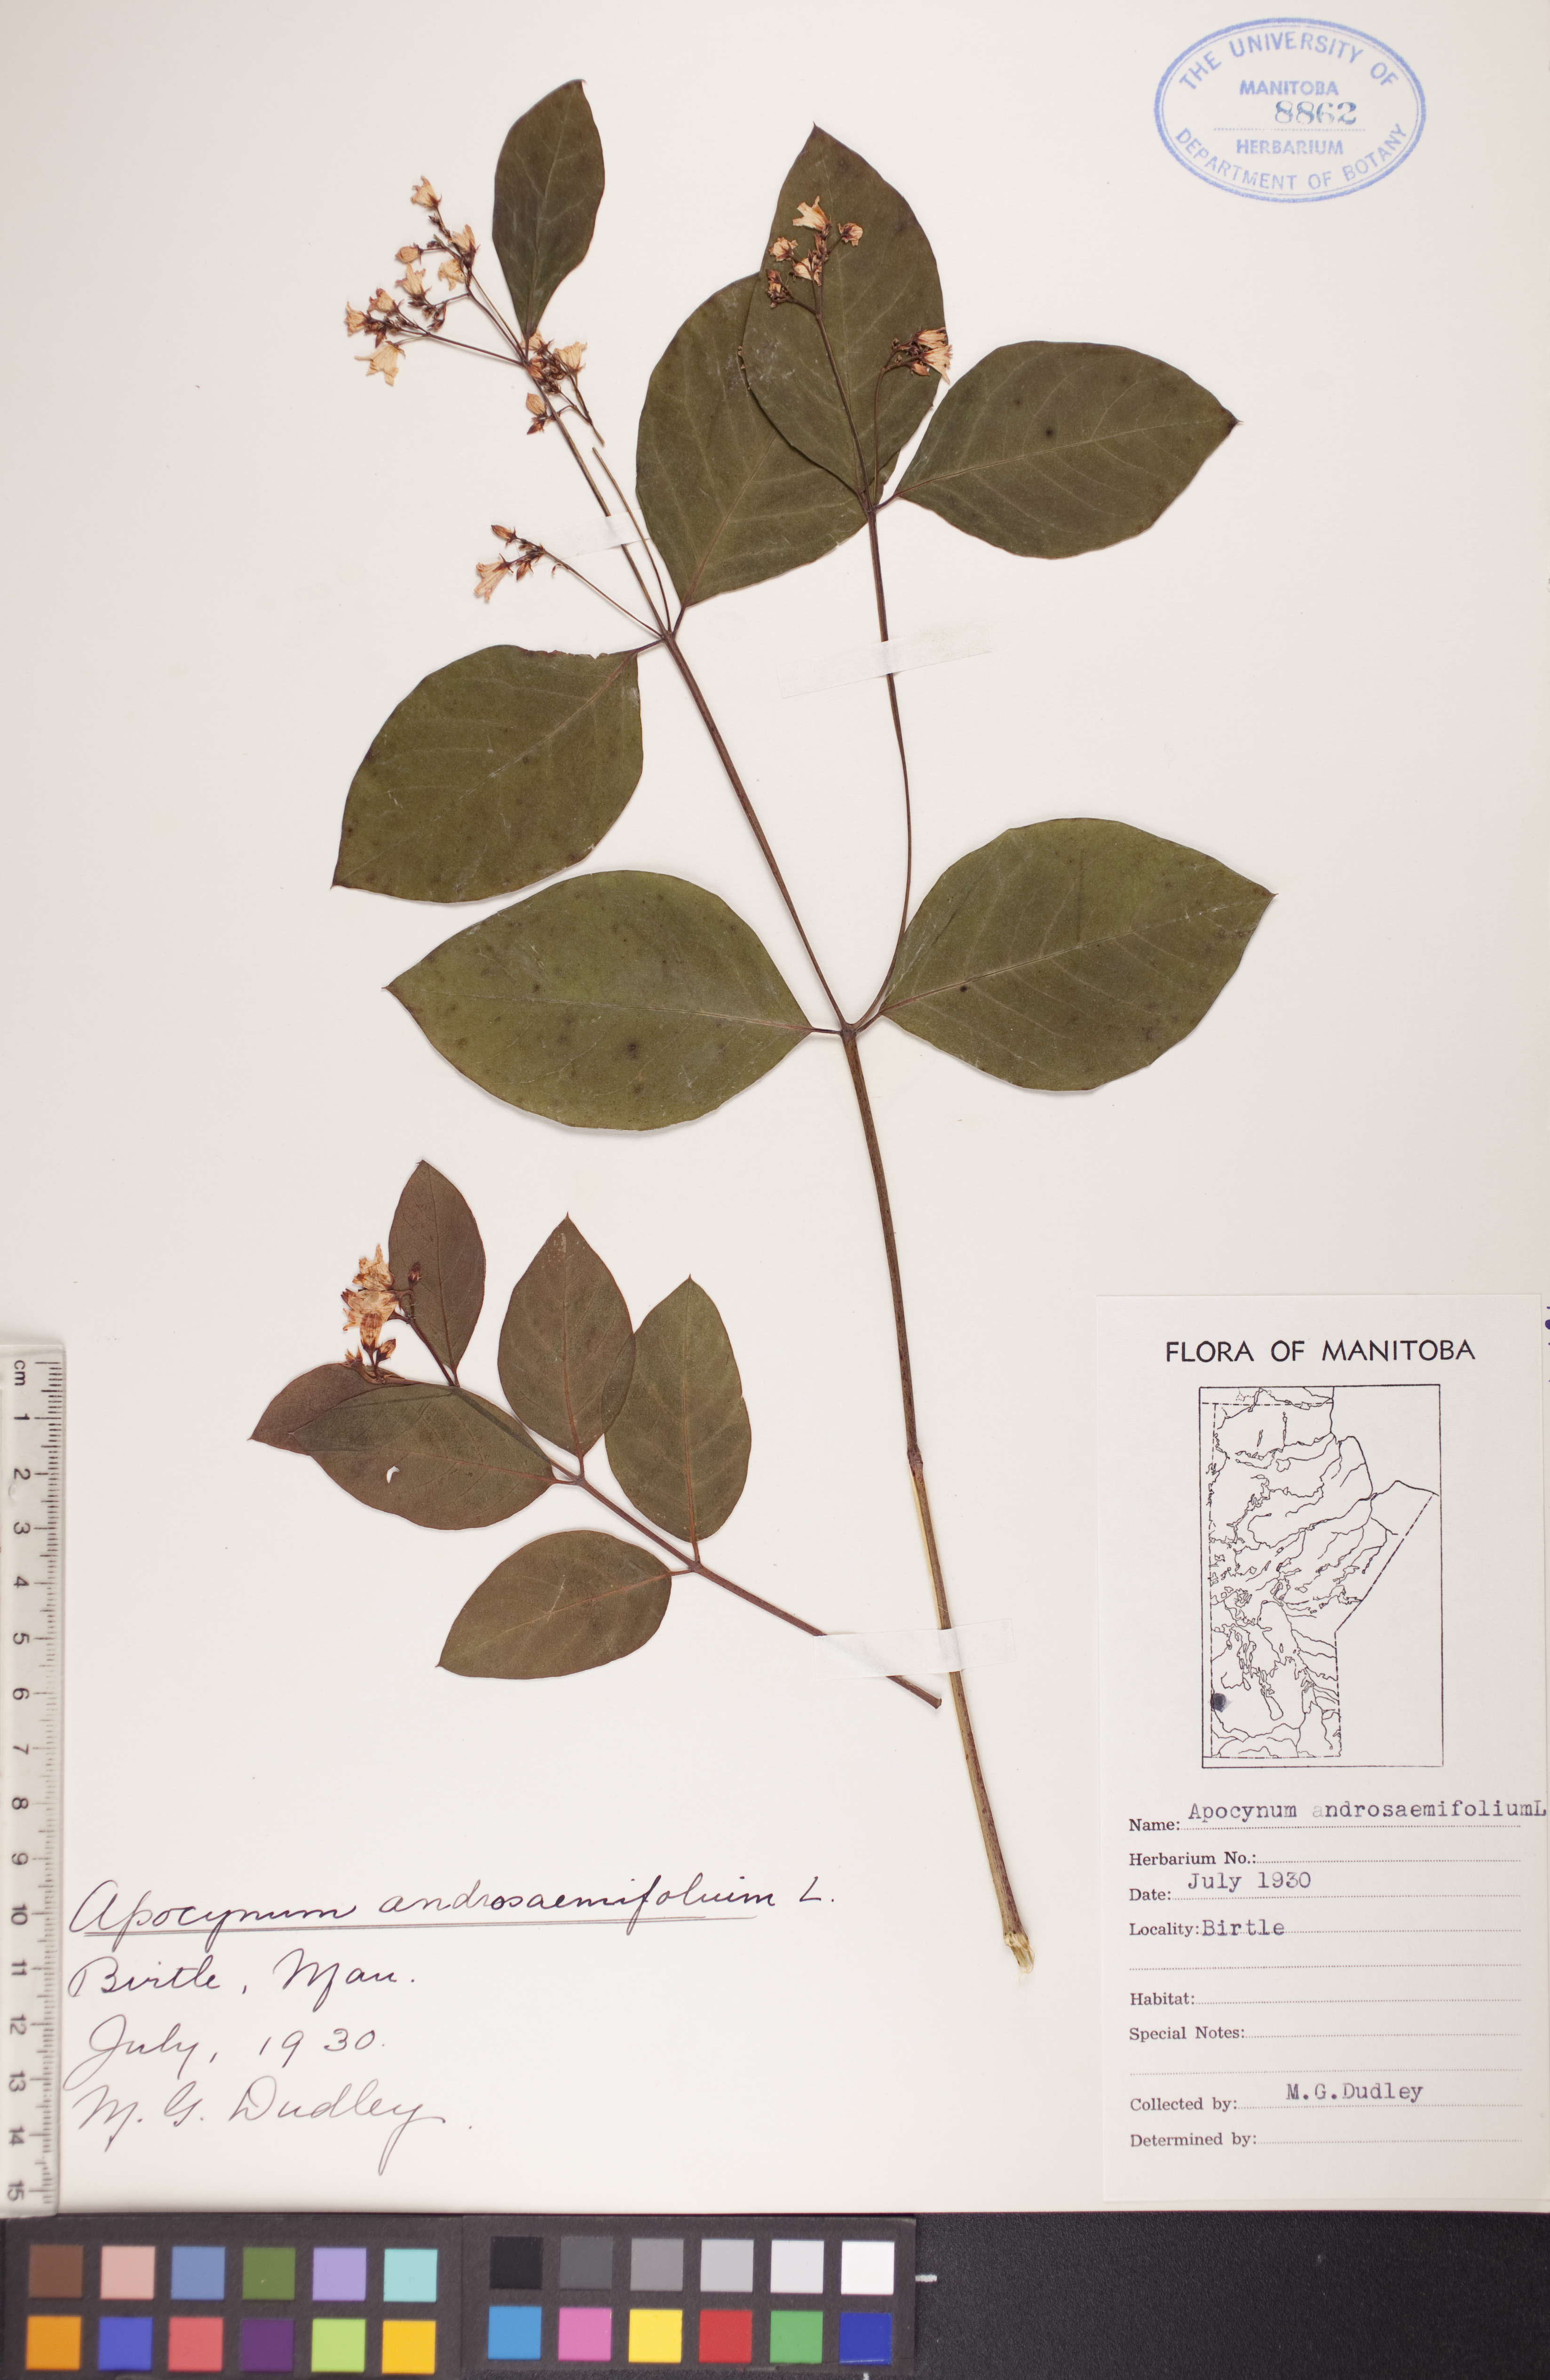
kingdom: Plantae
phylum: Tracheophyta
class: Magnoliopsida
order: Gentianales
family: Apocynaceae
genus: Apocynum
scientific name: Apocynum androsaemifolium
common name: Spreading dogbane
